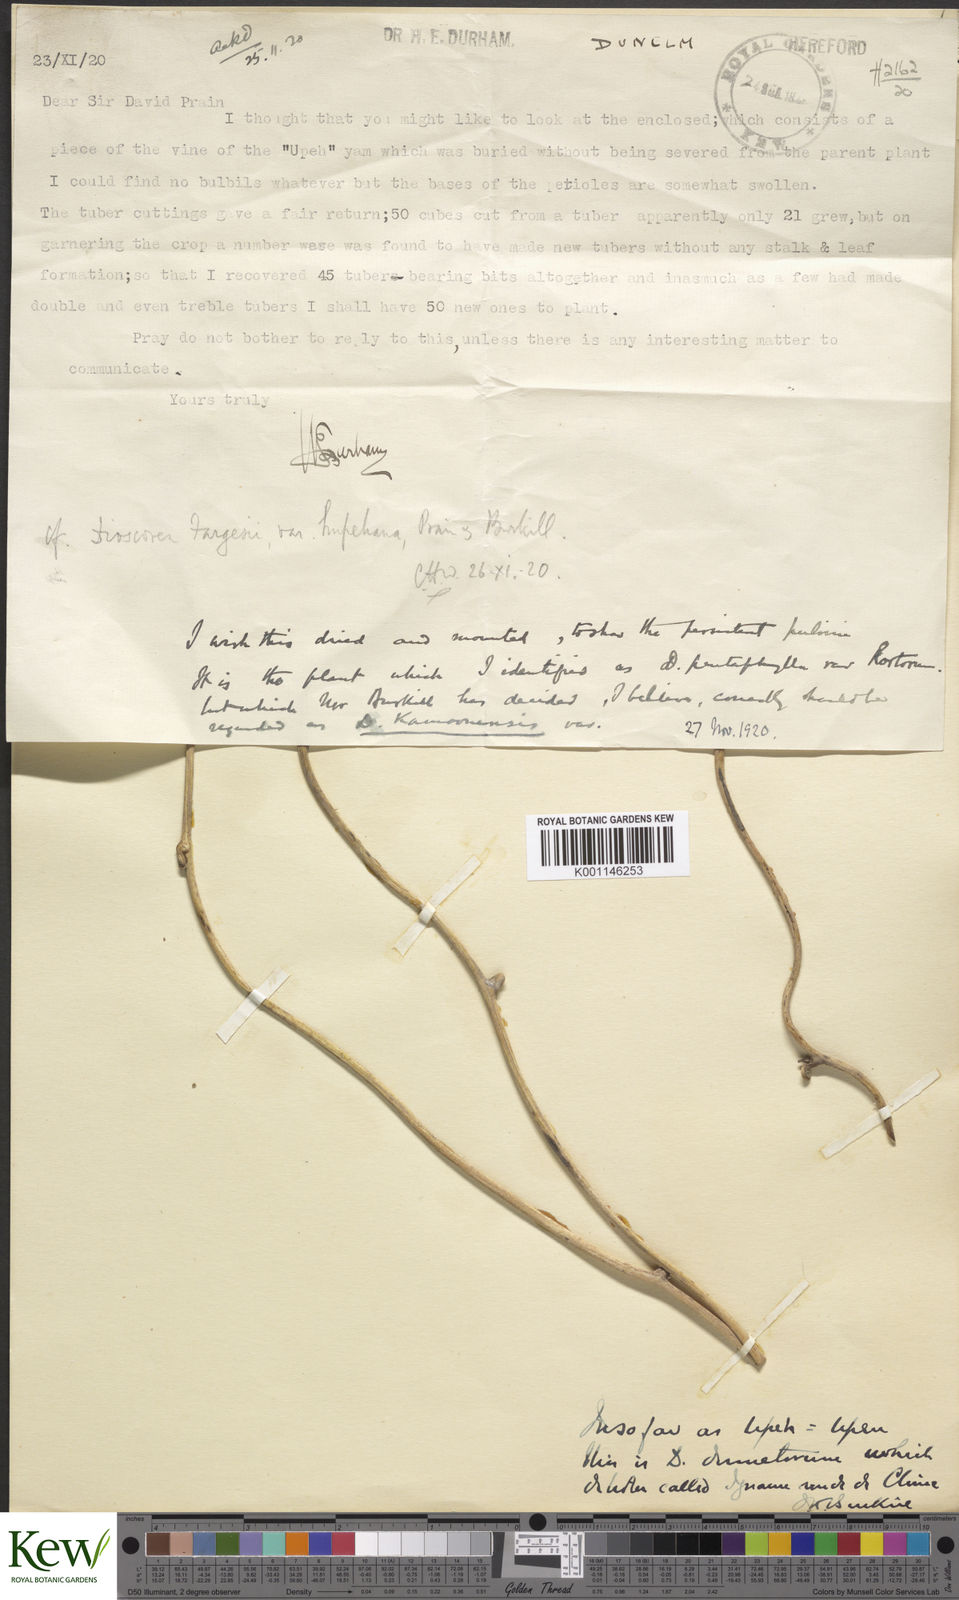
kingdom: Plantae
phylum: Tracheophyta
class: Liliopsida
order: Dioscoreales
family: Dioscoreaceae
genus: Dioscorea
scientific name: Dioscorea dumetorum
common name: African bitter yam
